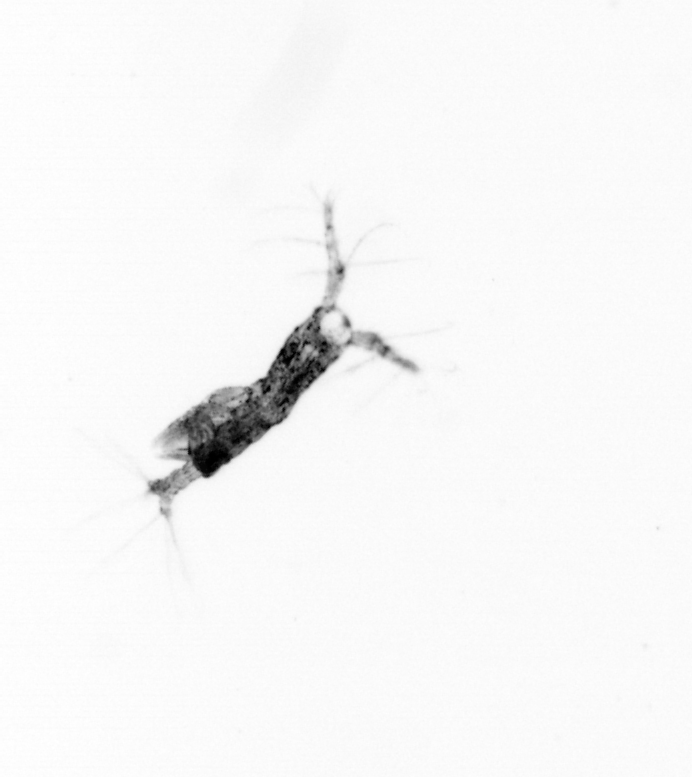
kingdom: Animalia
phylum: Arthropoda
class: Copepoda
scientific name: Copepoda
